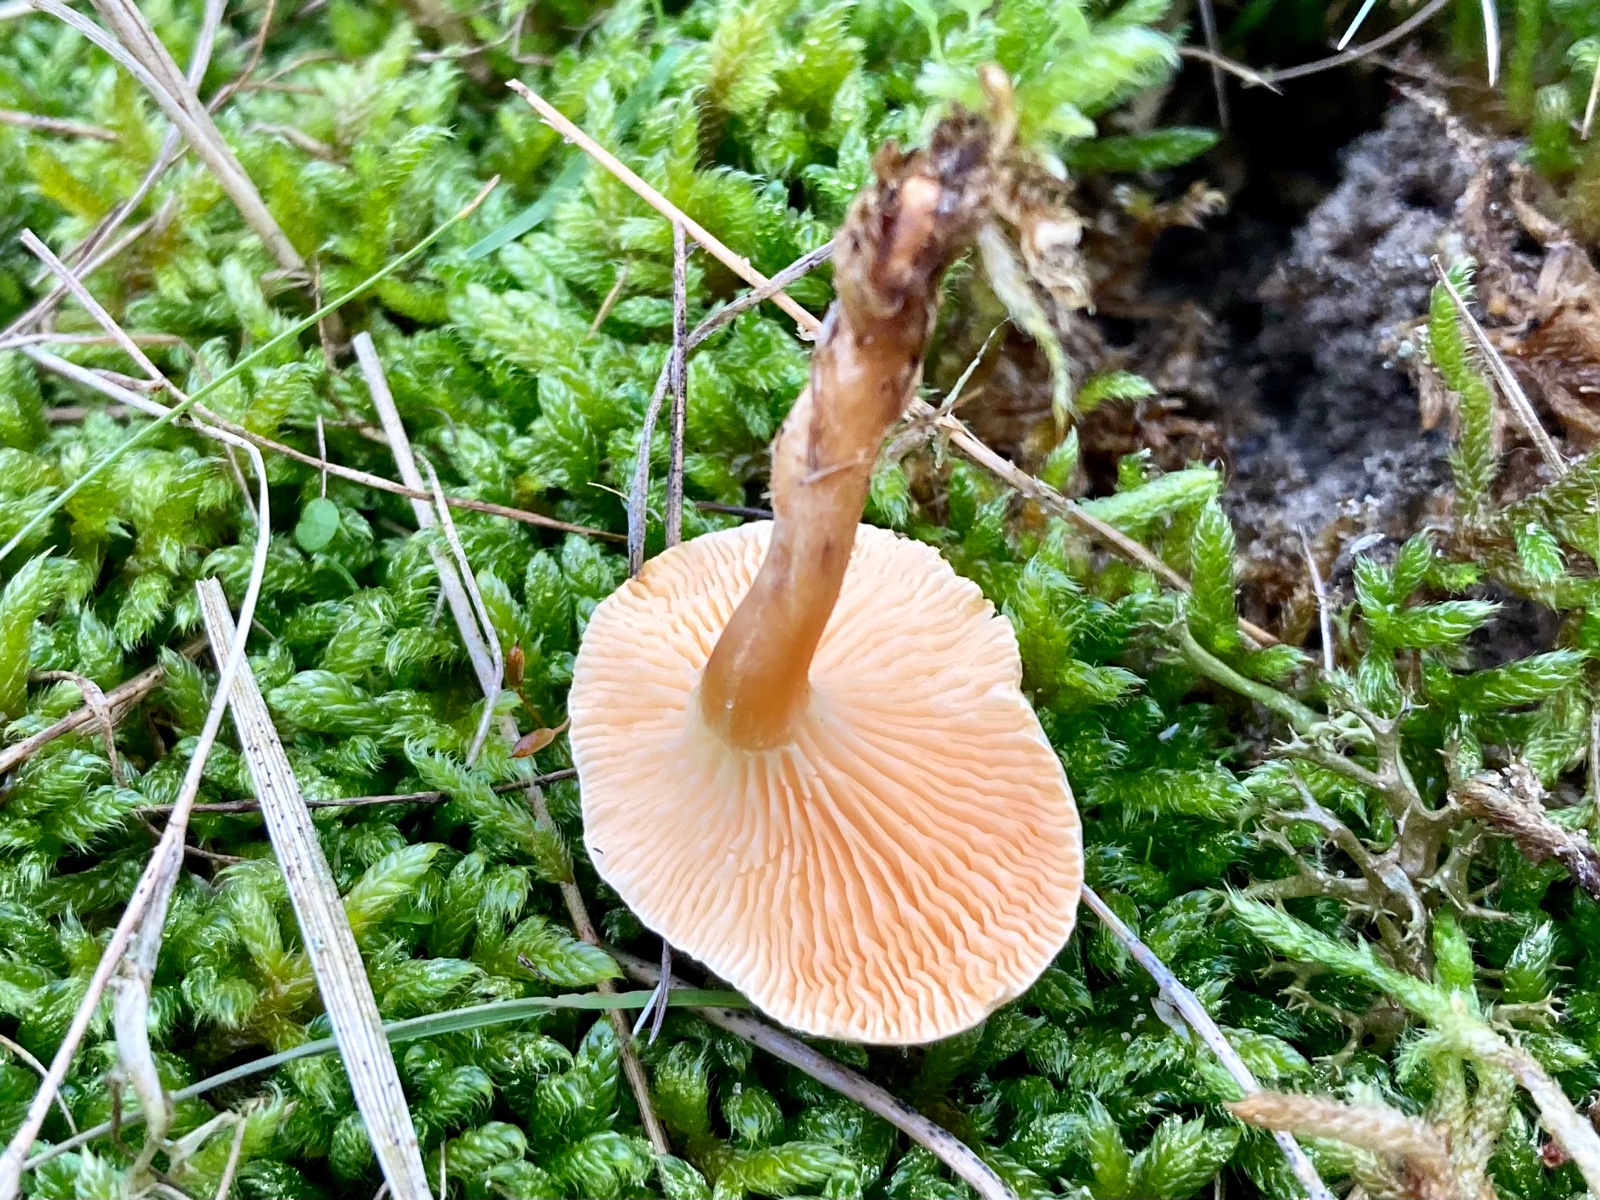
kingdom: Fungi
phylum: Basidiomycota
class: Agaricomycetes
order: Boletales
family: Hygrophoropsidaceae
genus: Hygrophoropsis
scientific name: Hygrophoropsis aurantiaca
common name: almindelig orangekantarel
